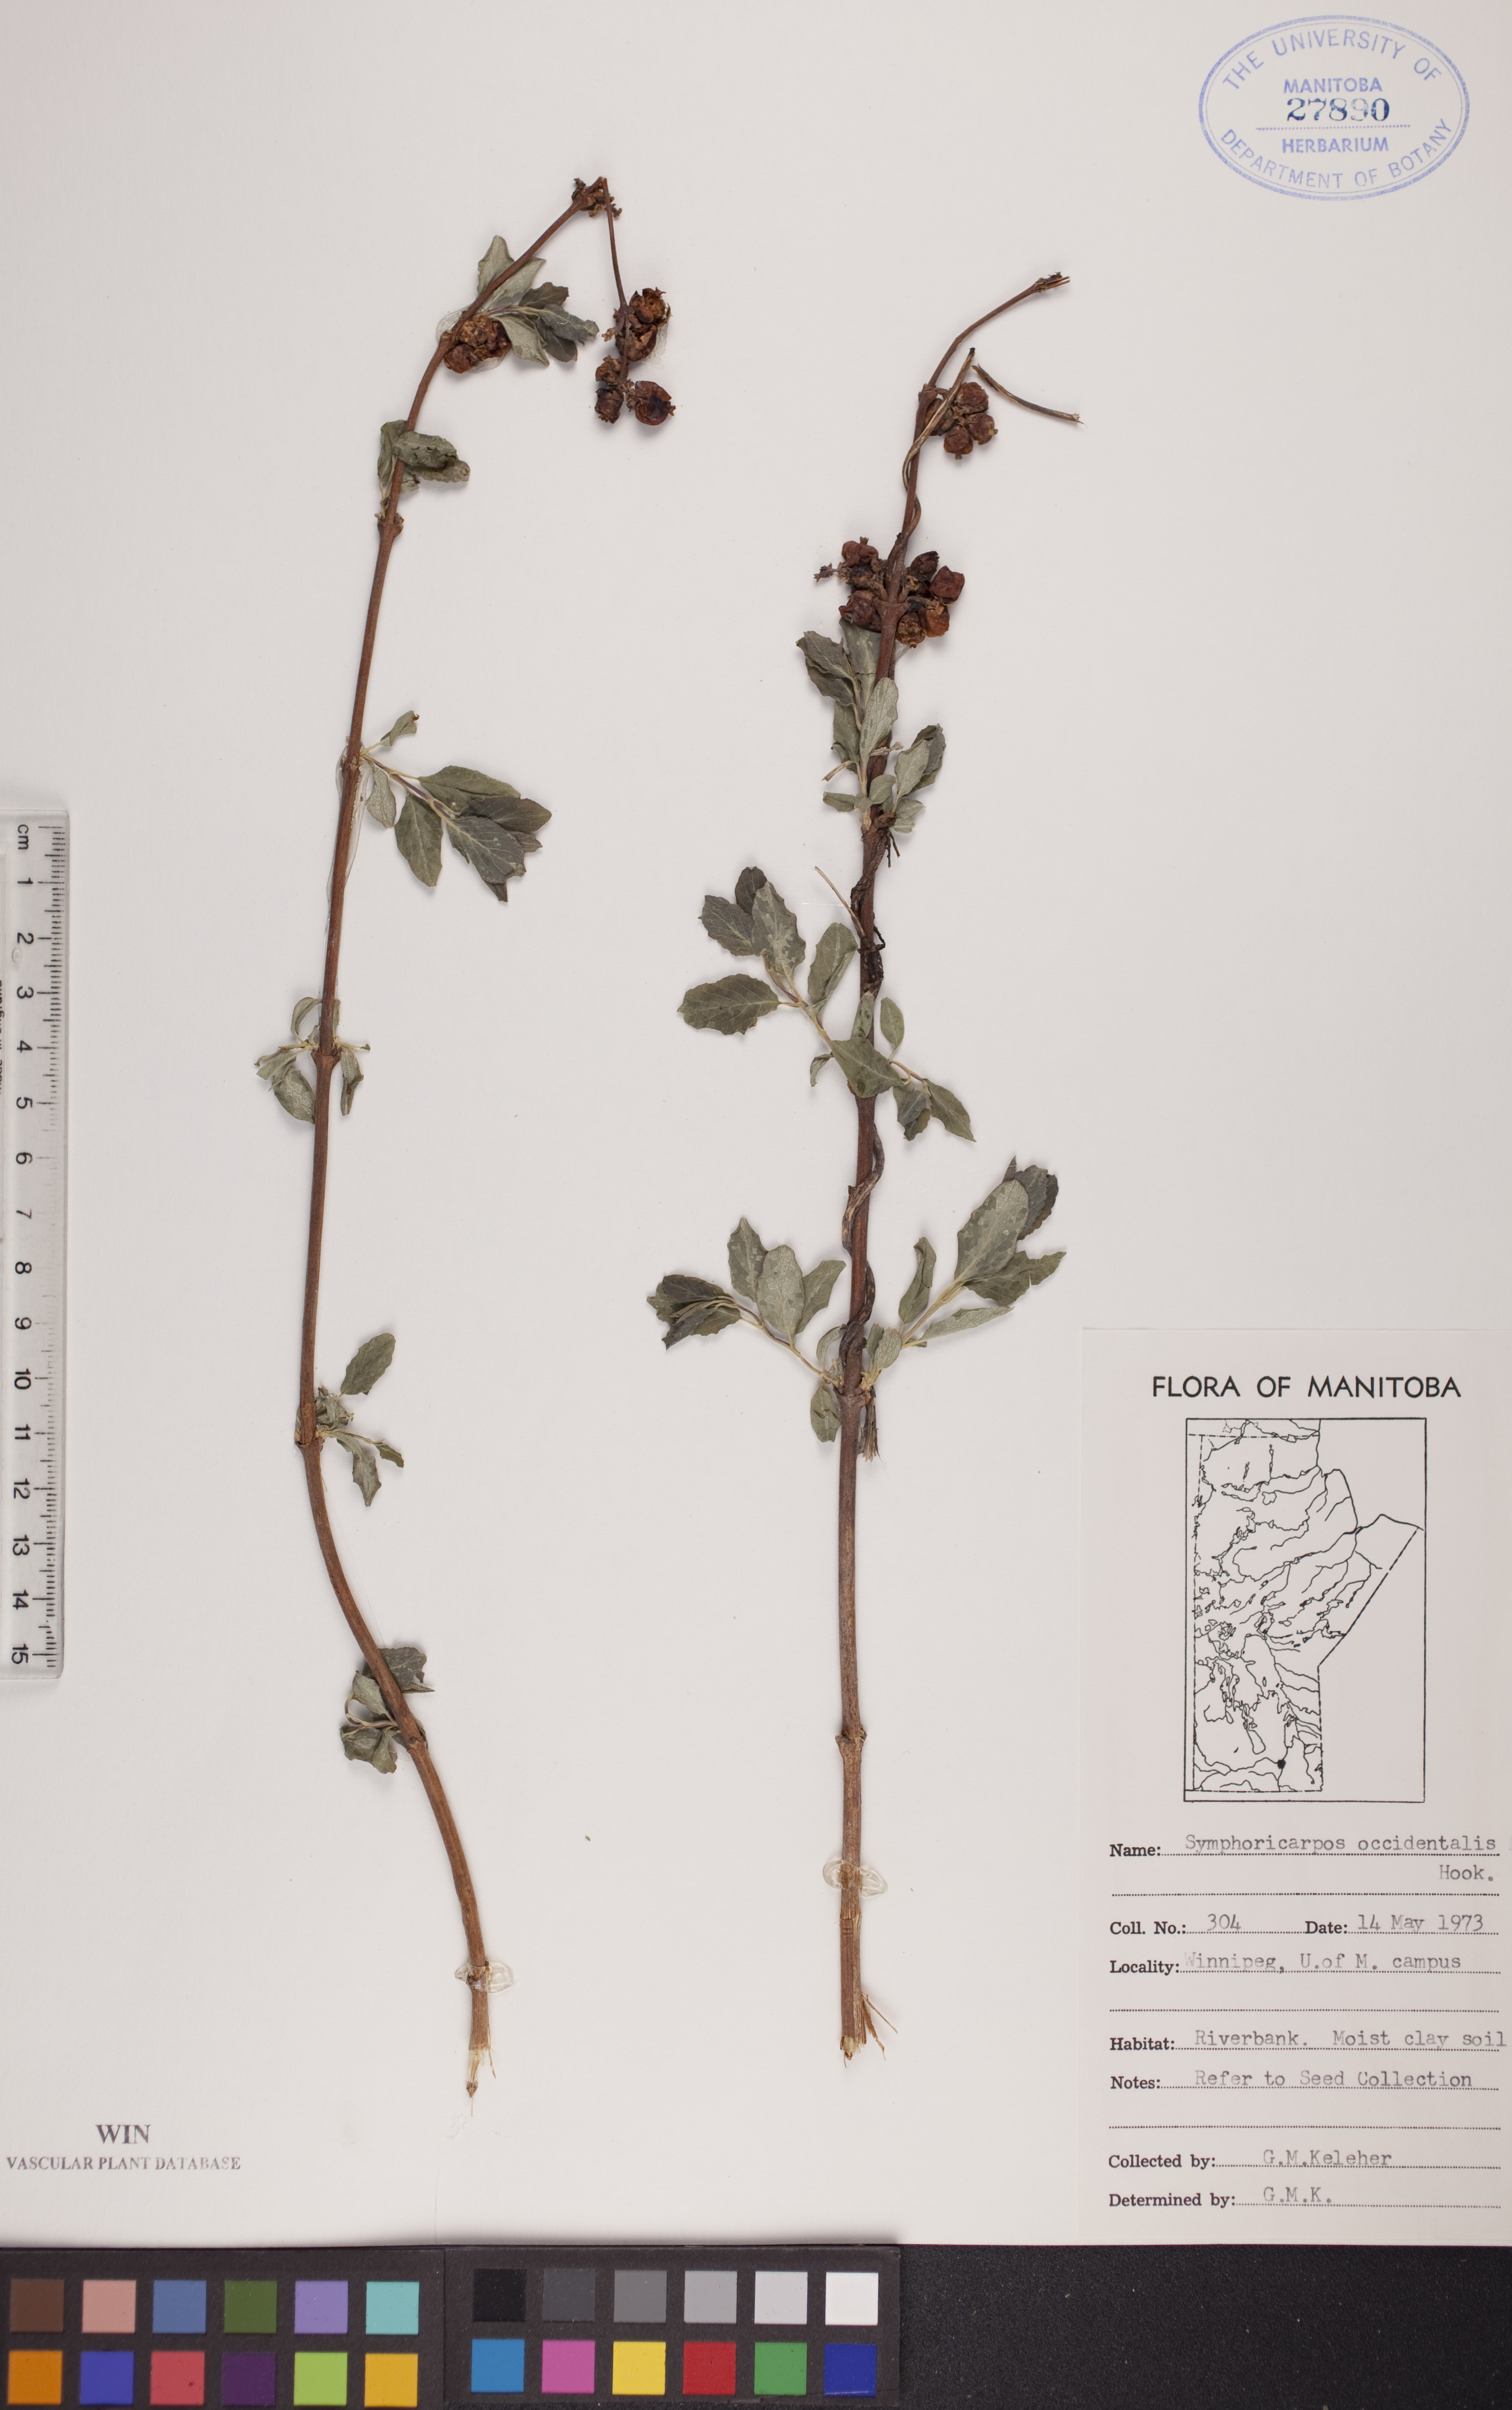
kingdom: Plantae
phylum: Tracheophyta
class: Magnoliopsida
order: Dipsacales
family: Caprifoliaceae
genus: Symphoricarpos
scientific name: Symphoricarpos occidentalis
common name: Wolfberry
